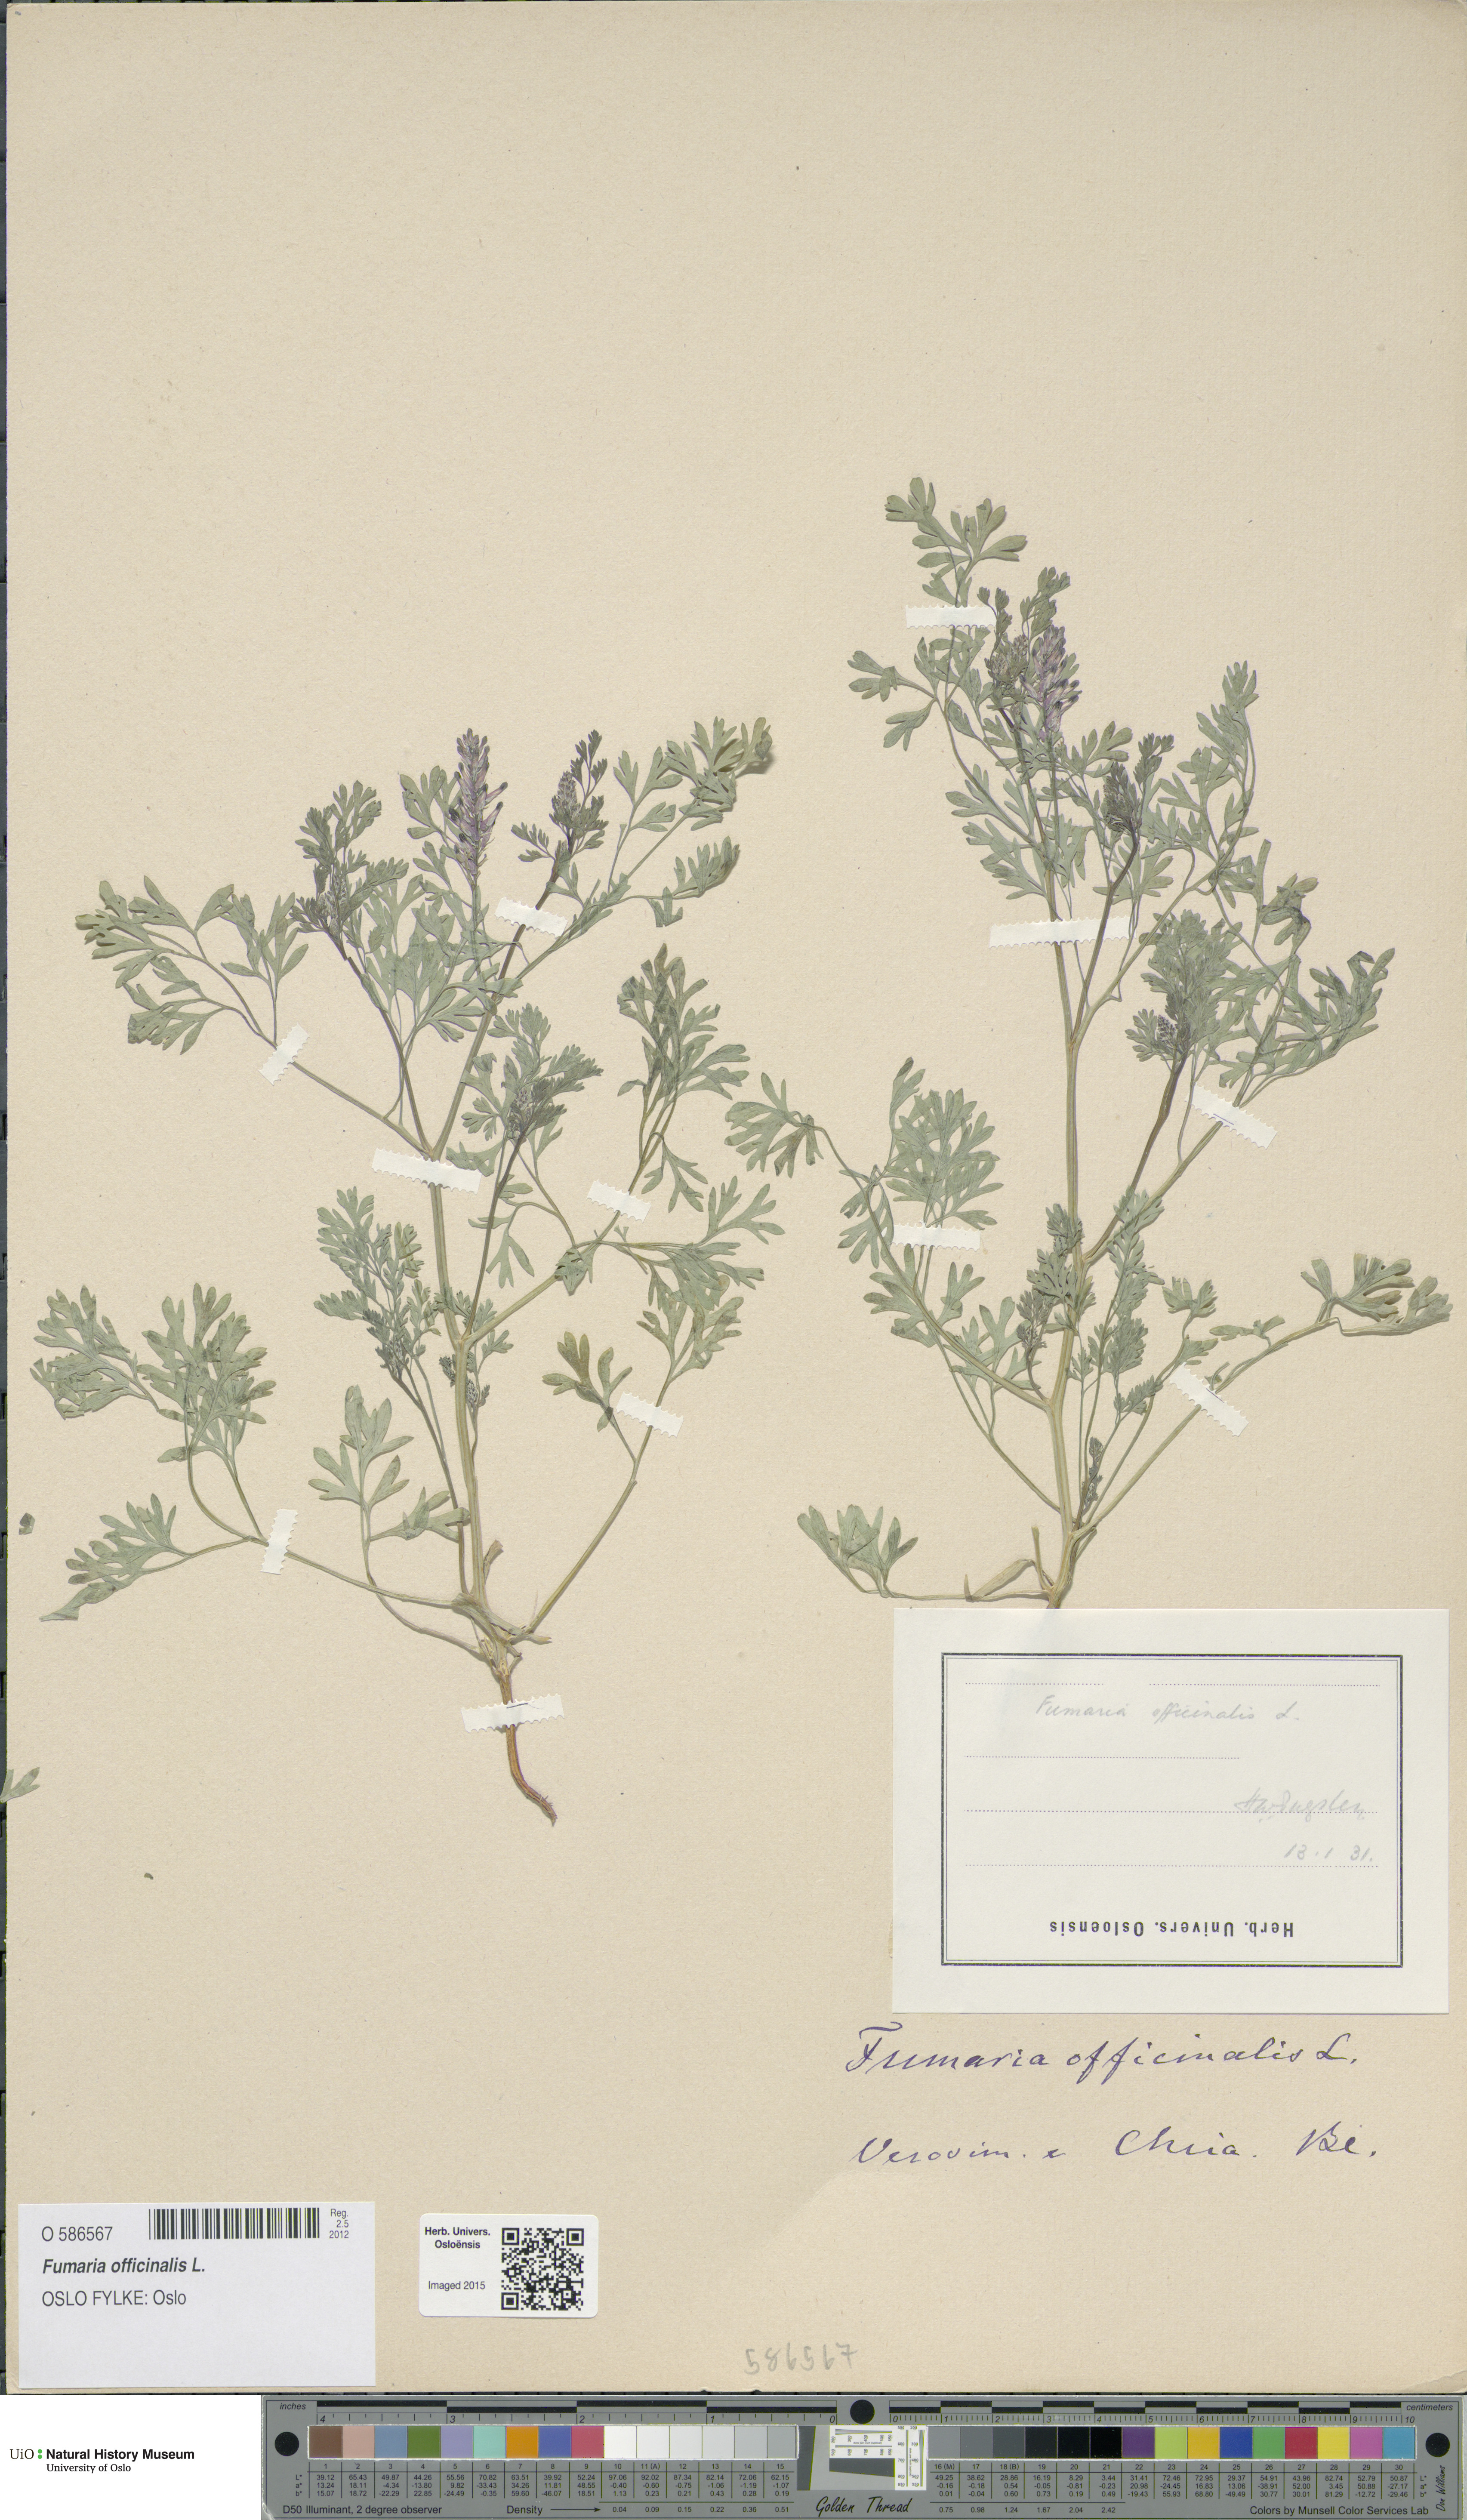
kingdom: Plantae
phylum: Tracheophyta
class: Magnoliopsida
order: Ranunculales
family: Papaveraceae
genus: Fumaria
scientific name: Fumaria officinalis
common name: Common fumitory
